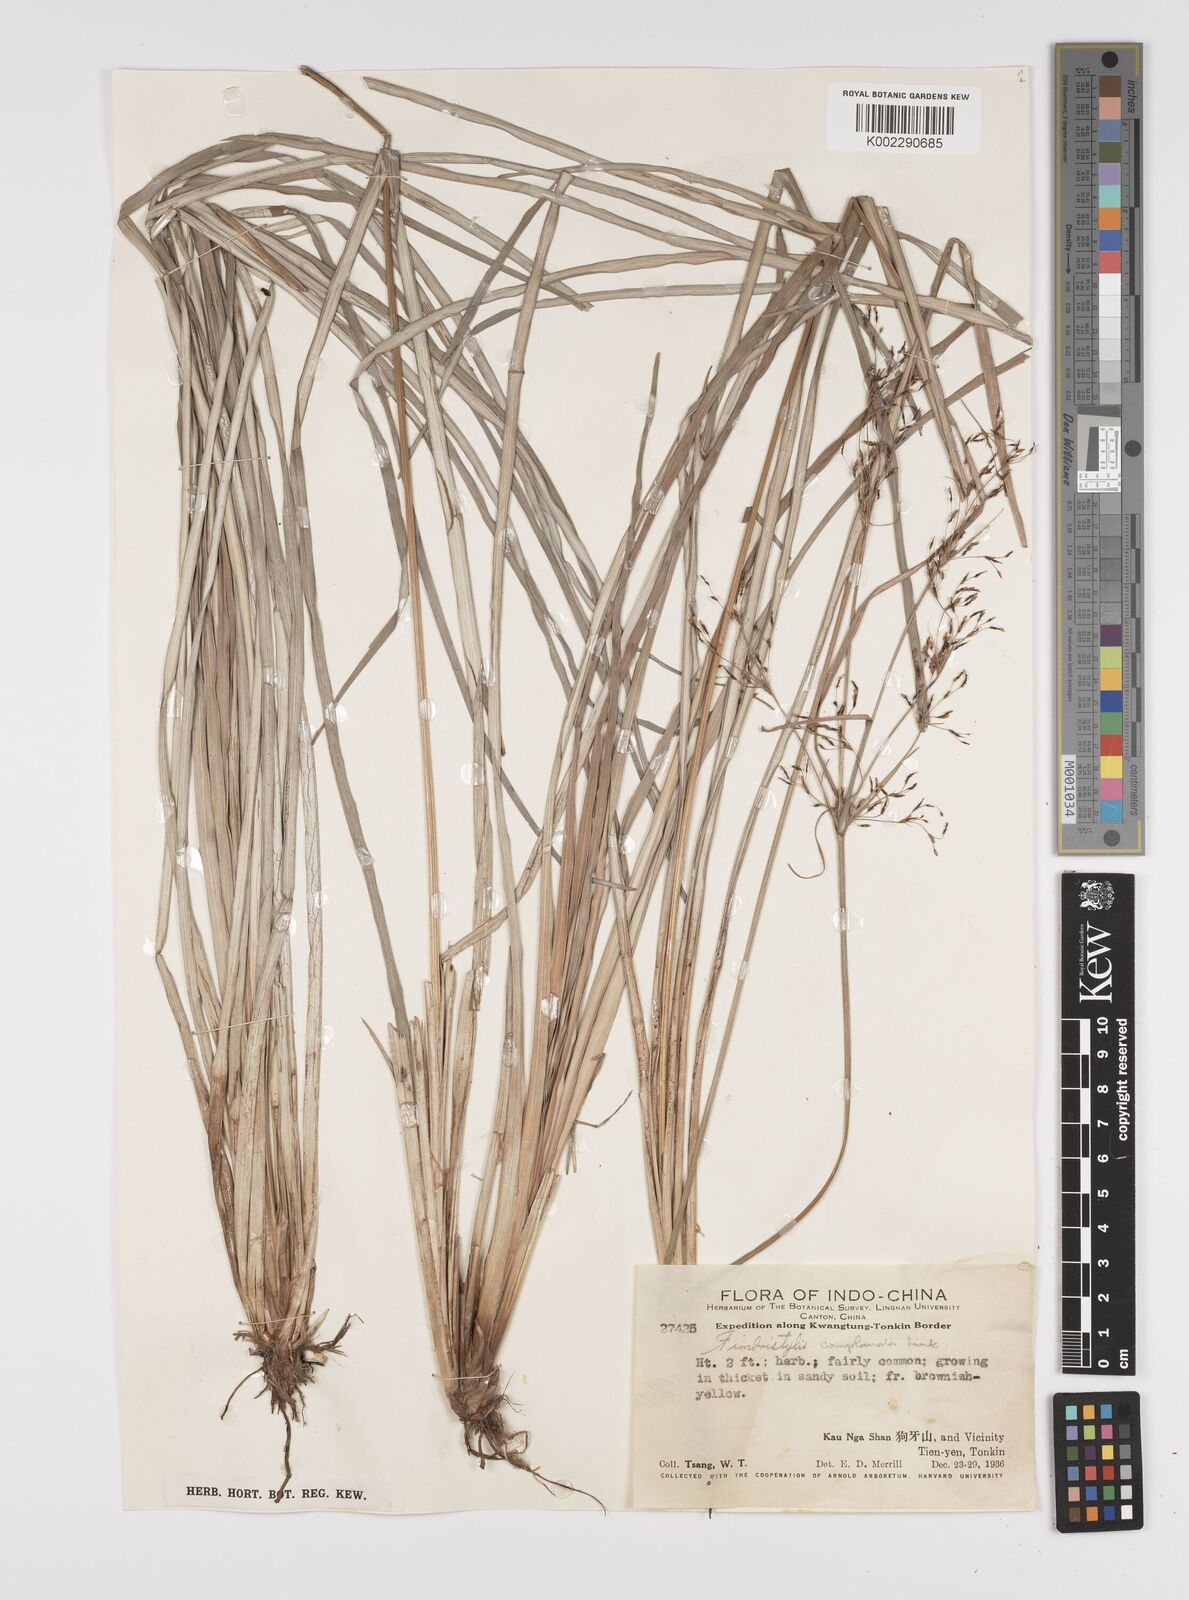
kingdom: Plantae
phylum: Tracheophyta
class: Liliopsida
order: Poales
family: Cyperaceae
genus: Fimbristylis
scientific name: Fimbristylis
